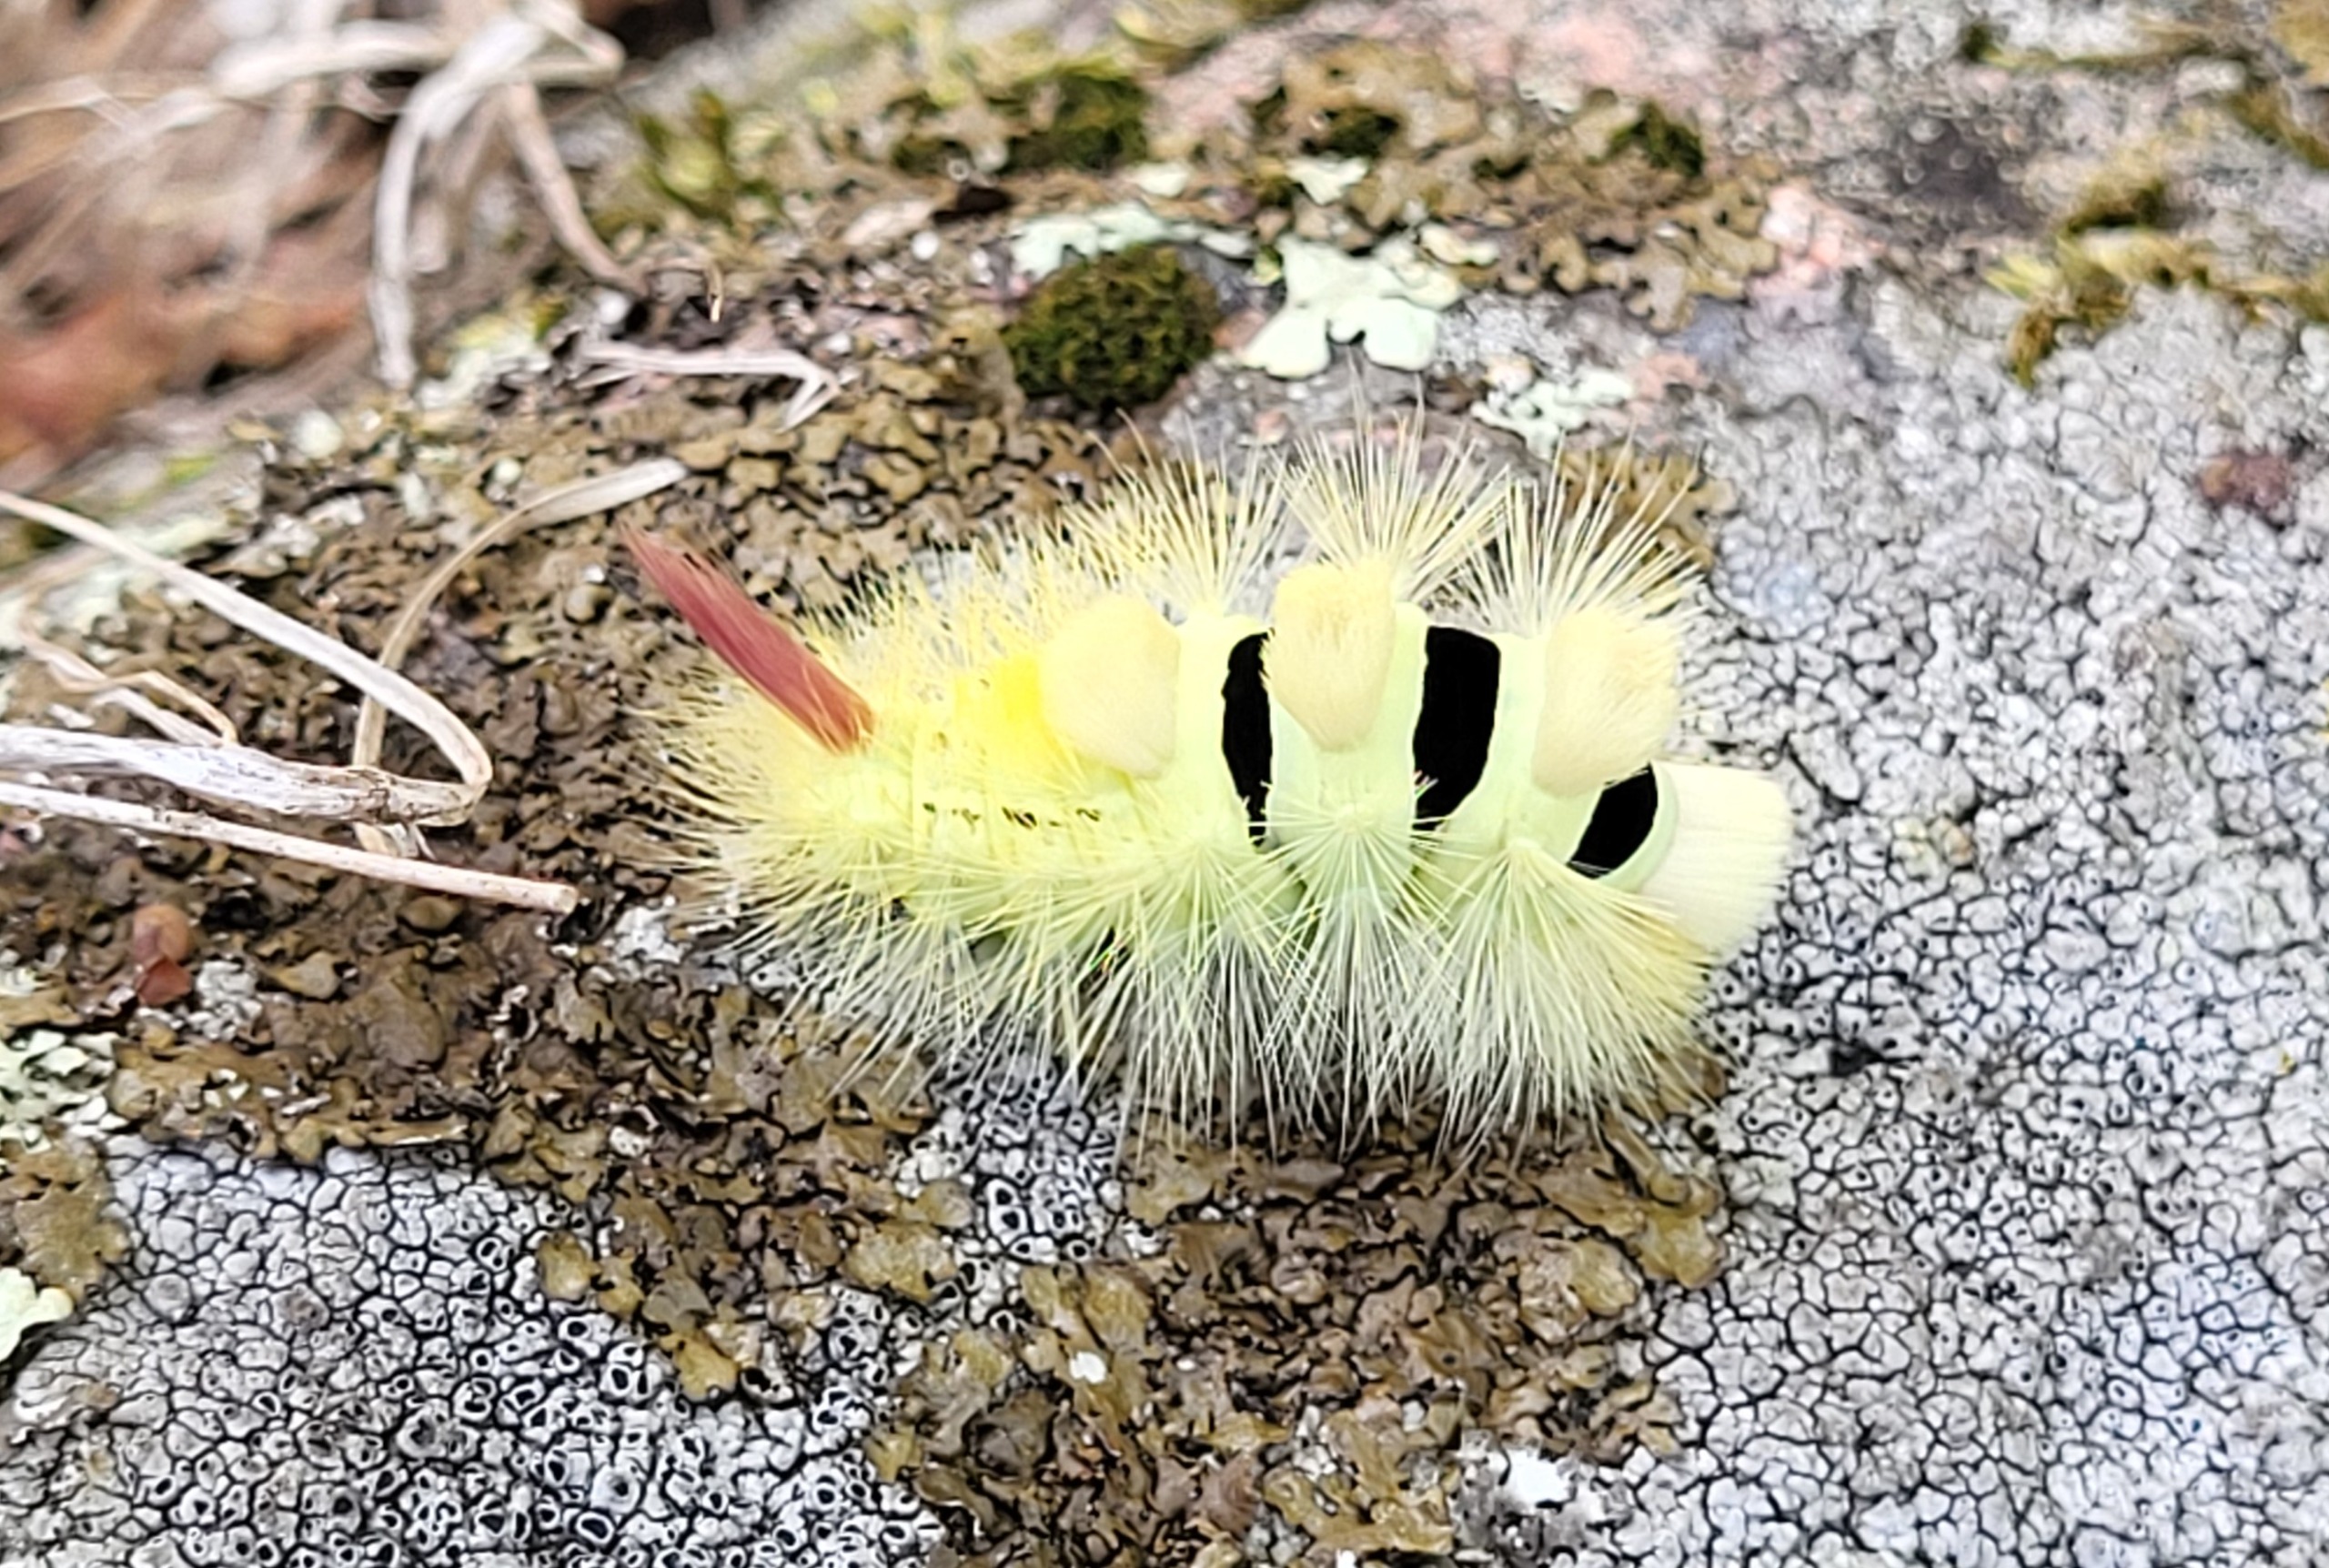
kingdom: Animalia
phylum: Arthropoda
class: Insecta
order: Lepidoptera
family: Erebidae
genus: Calliteara
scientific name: Calliteara pudibunda
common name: Bøgenonne
